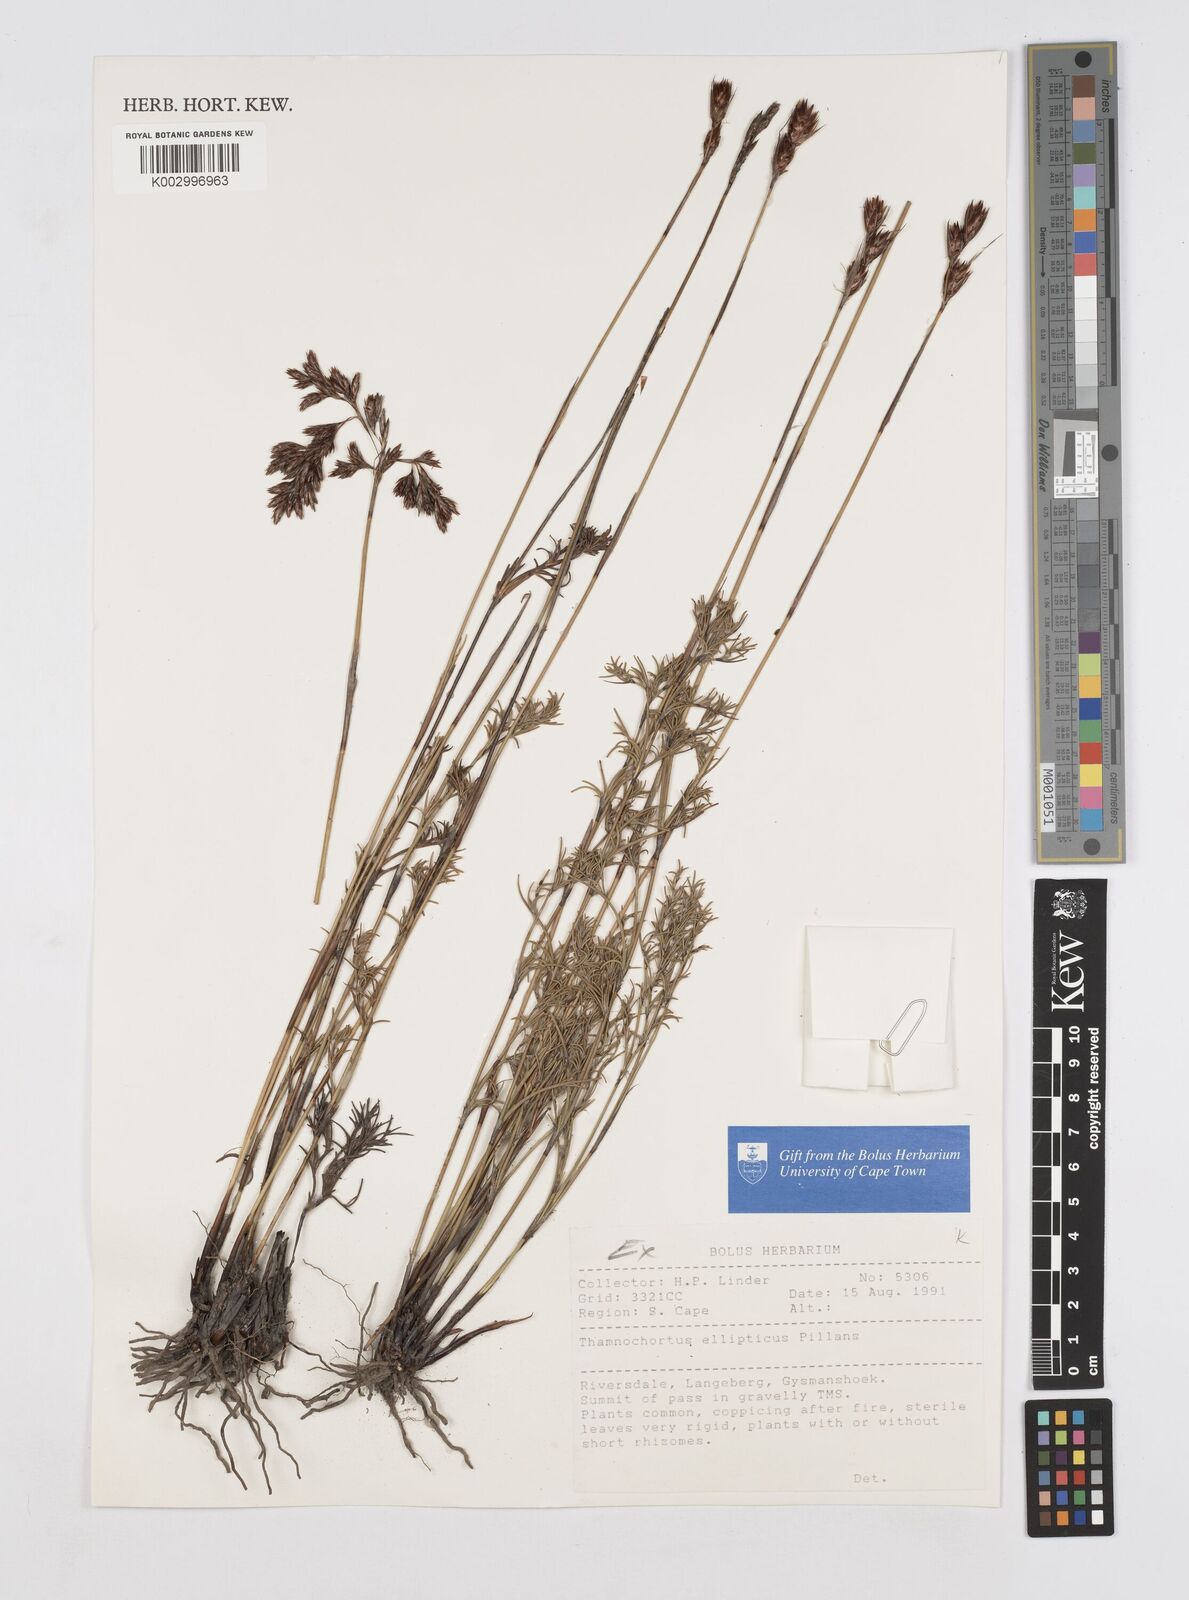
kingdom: Plantae
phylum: Tracheophyta
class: Liliopsida
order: Poales
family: Restionaceae
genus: Thamnochortus
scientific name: Thamnochortus ellipticus
